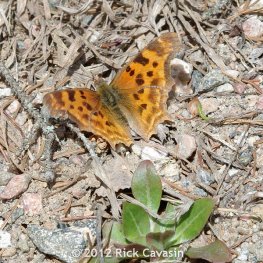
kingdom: Animalia
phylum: Arthropoda
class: Insecta
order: Lepidoptera
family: Nymphalidae
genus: Polygonia
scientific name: Polygonia satyrus
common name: Satyr Comma
